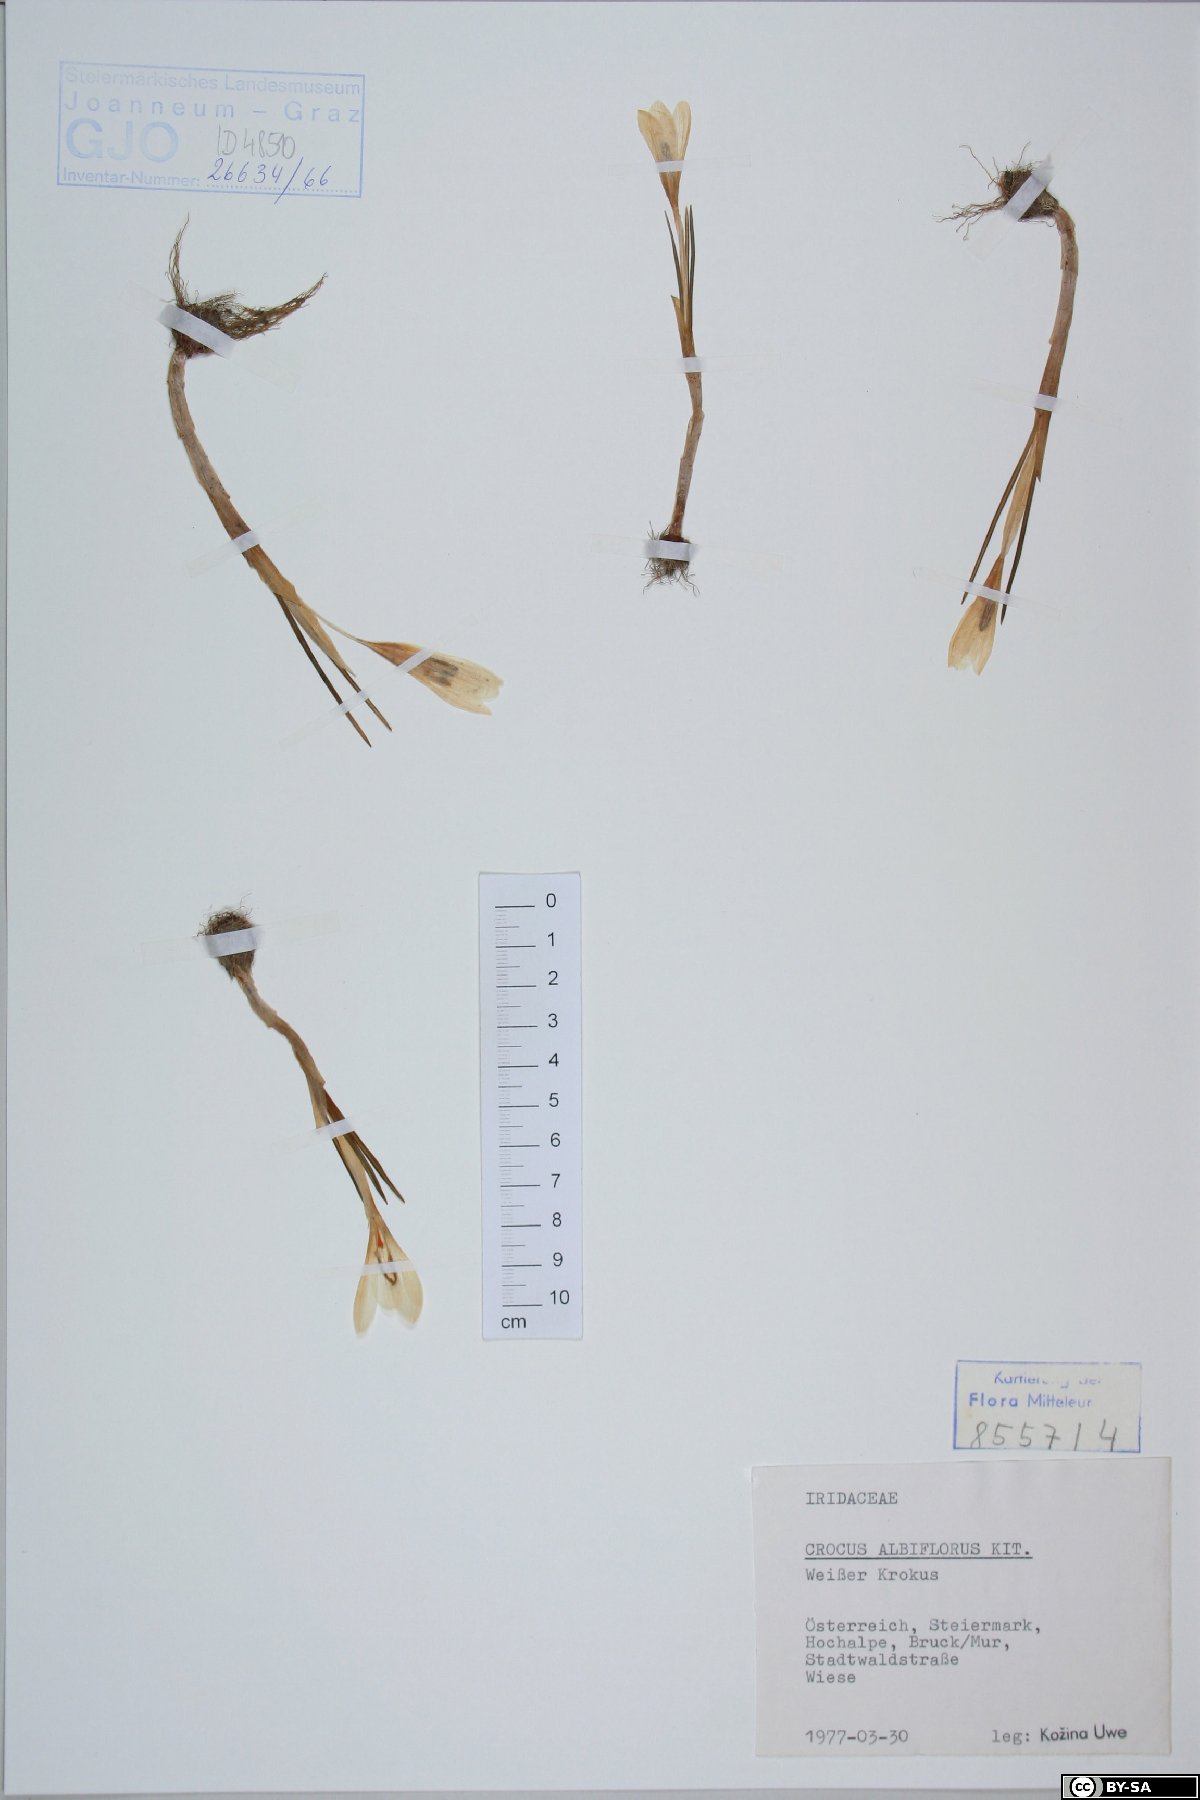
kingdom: Plantae
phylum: Tracheophyta
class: Liliopsida
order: Asparagales
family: Iridaceae
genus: Crocus
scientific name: Crocus vernus
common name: Spring crocus
